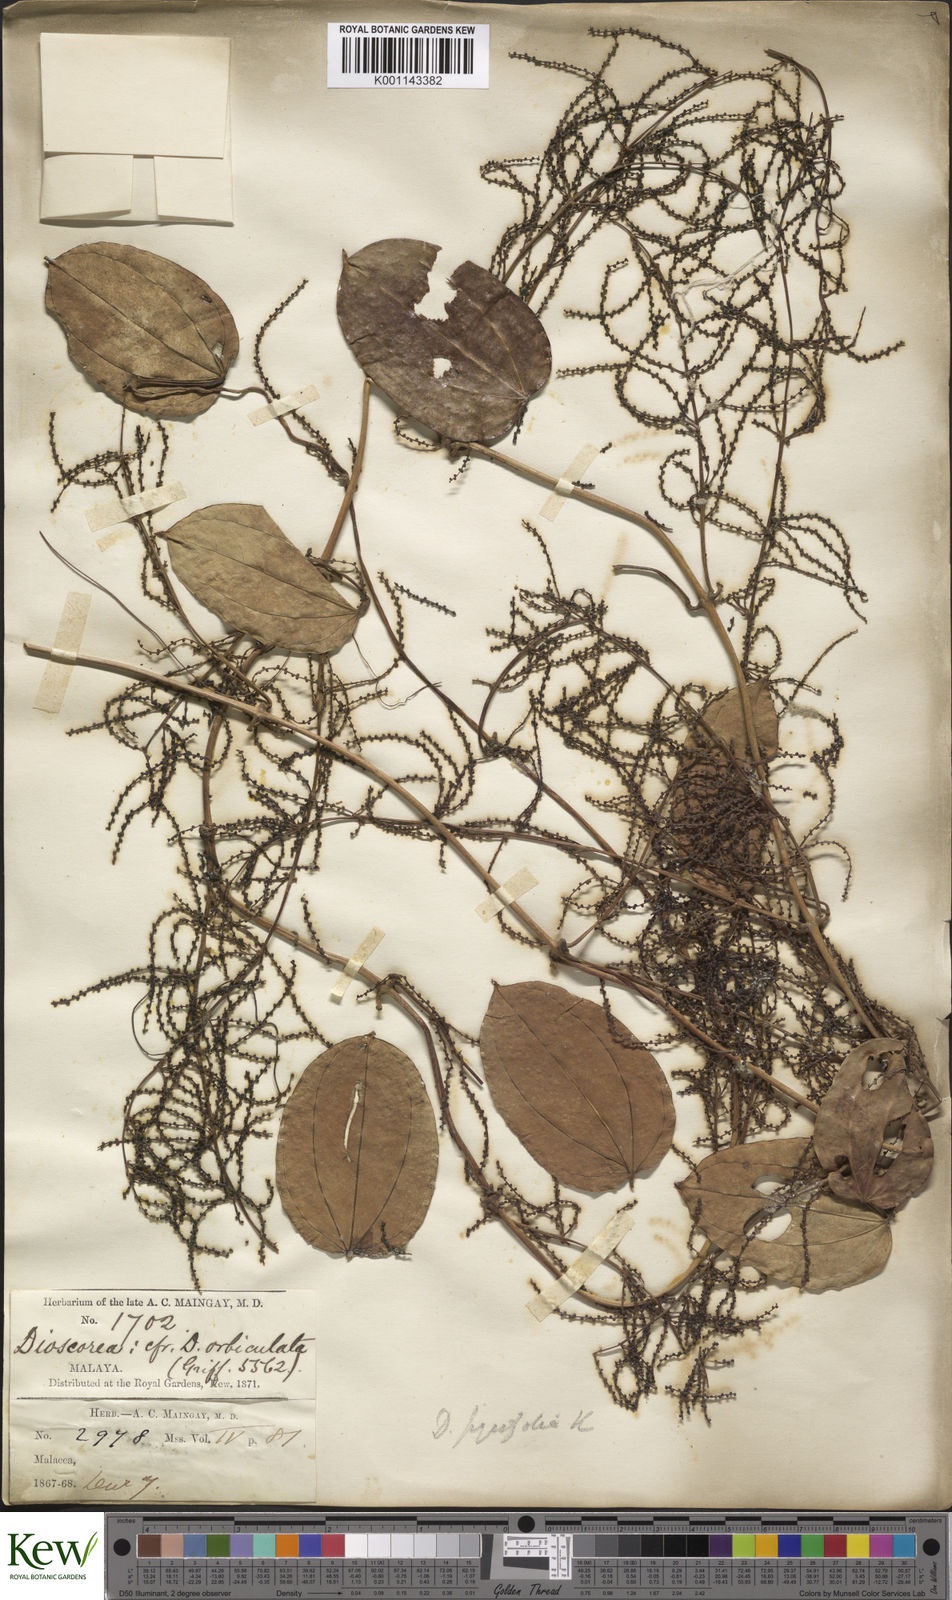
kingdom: Plantae
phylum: Tracheophyta
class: Liliopsida
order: Dioscoreales
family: Dioscoreaceae
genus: Dioscorea
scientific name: Dioscorea
